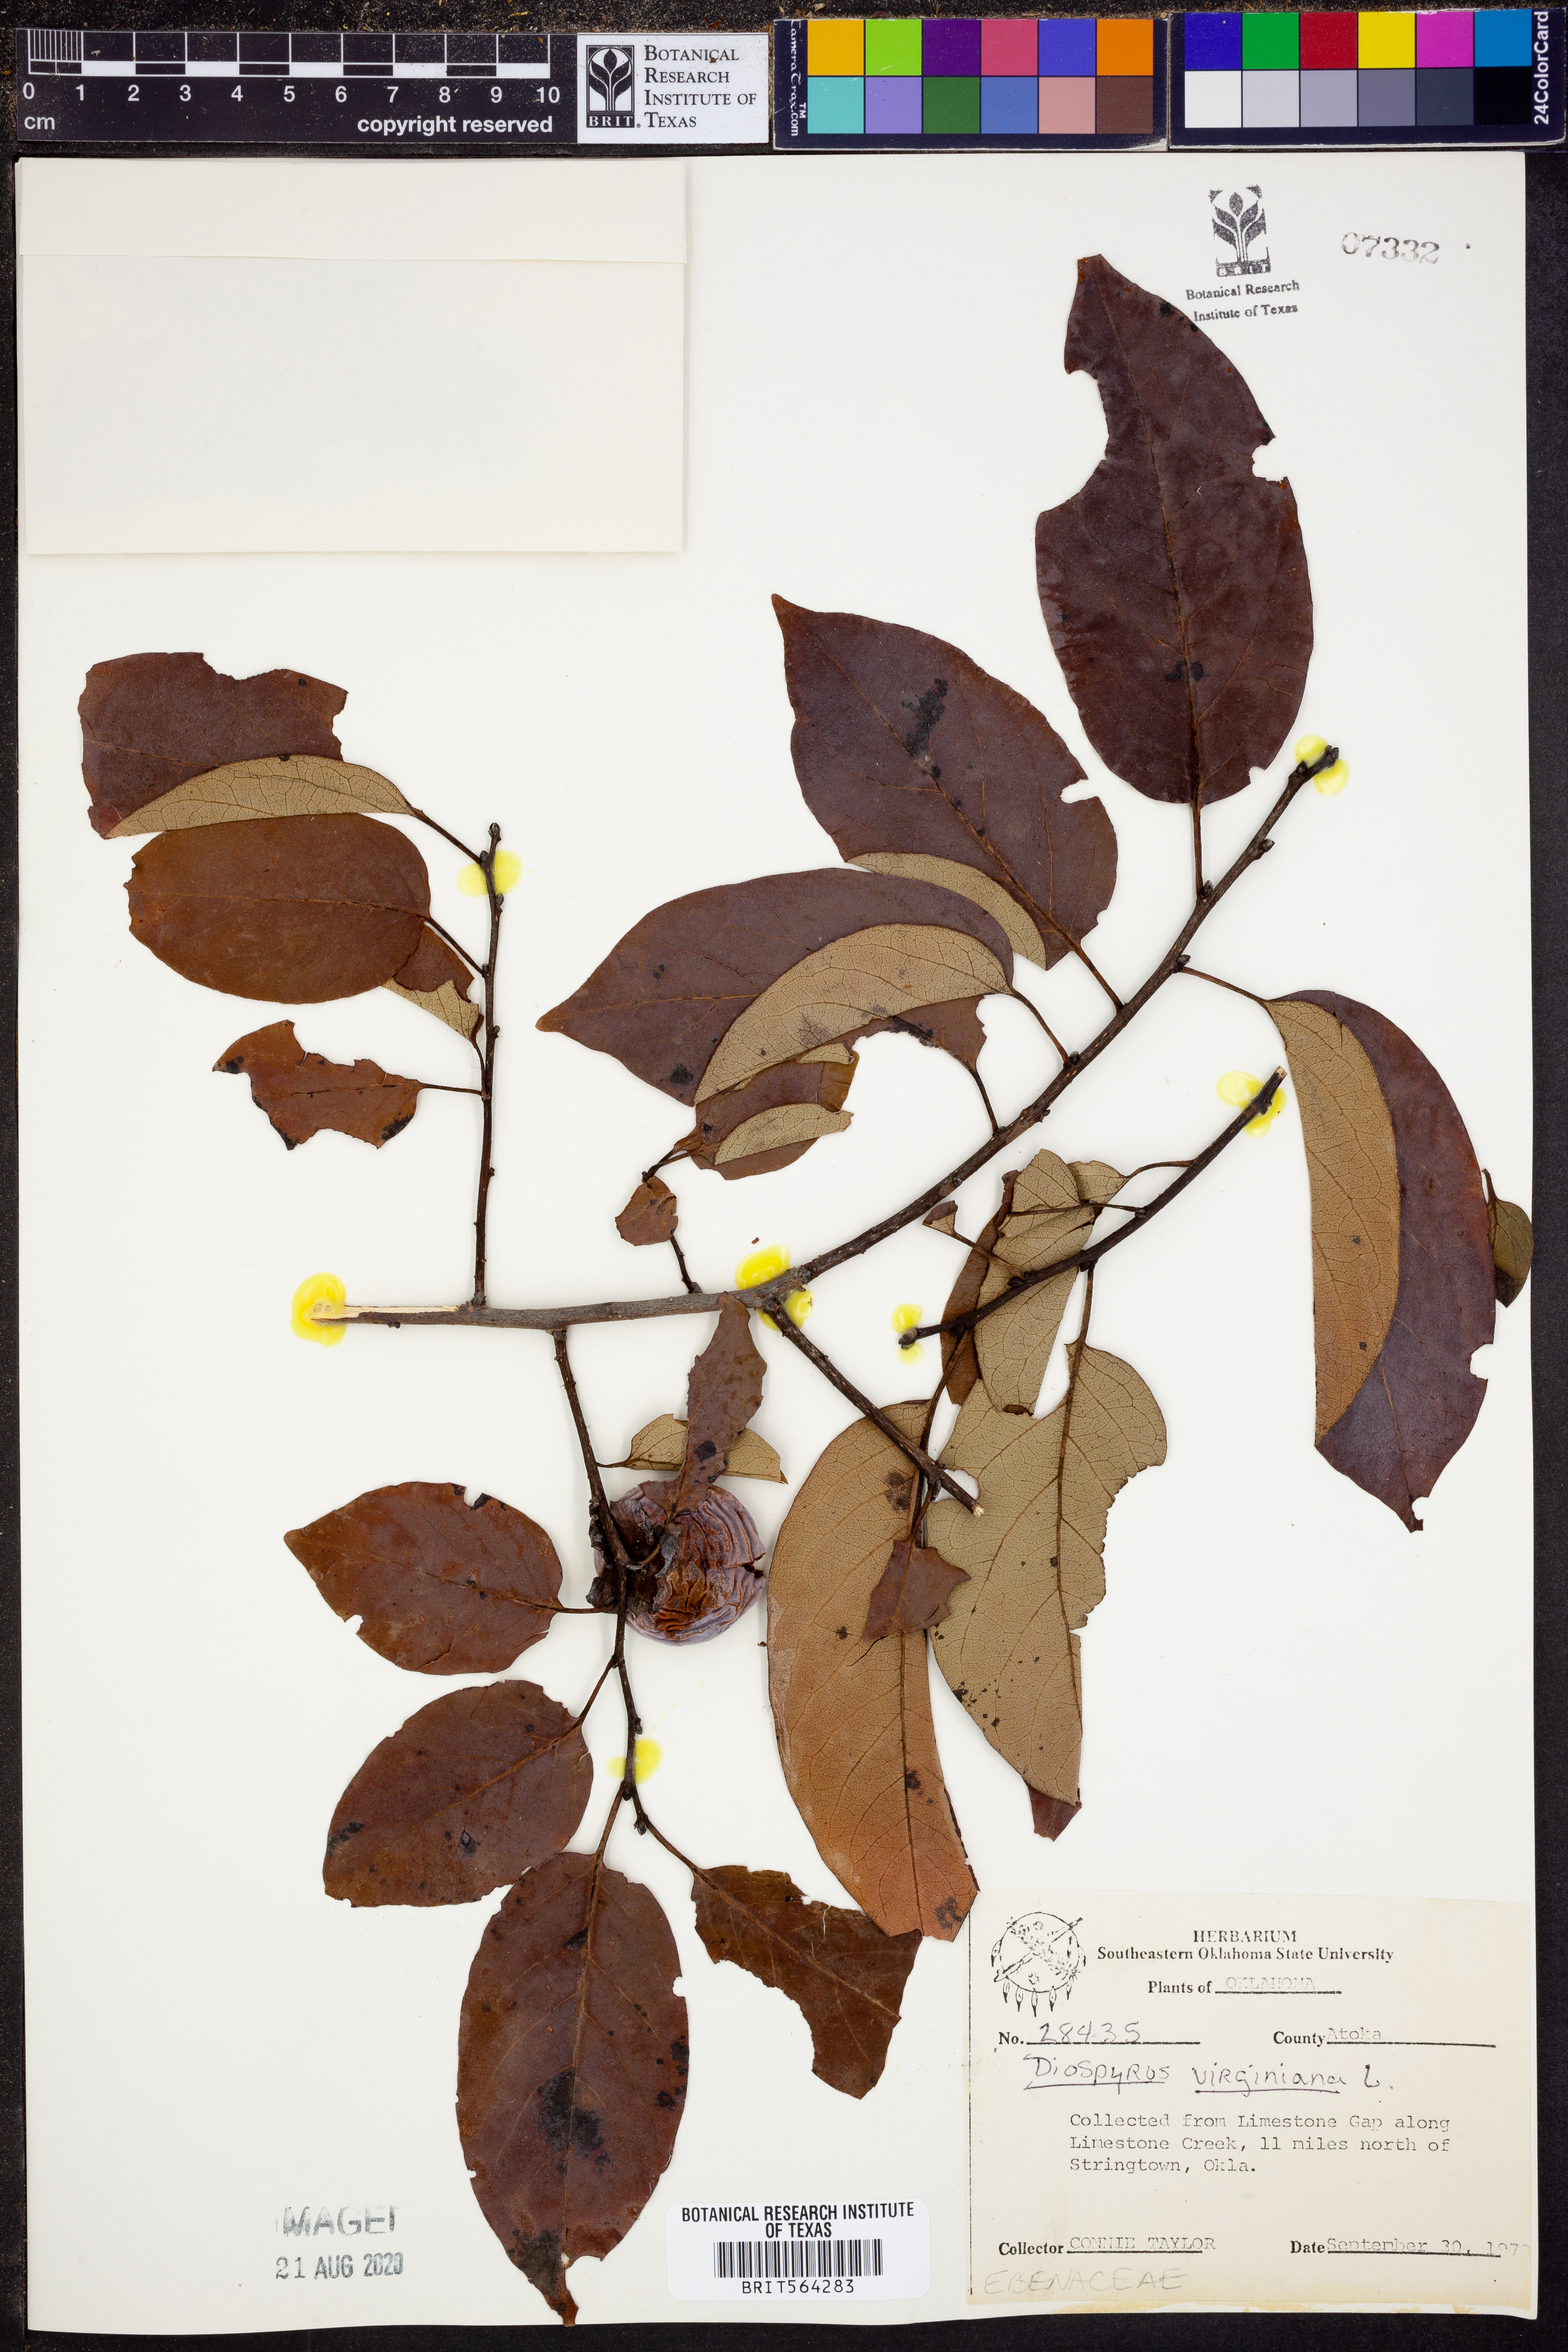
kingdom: Plantae
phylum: Tracheophyta
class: Magnoliopsida
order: Ericales
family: Ebenaceae
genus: Diospyros
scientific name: Diospyros virginiana
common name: Persimmon
